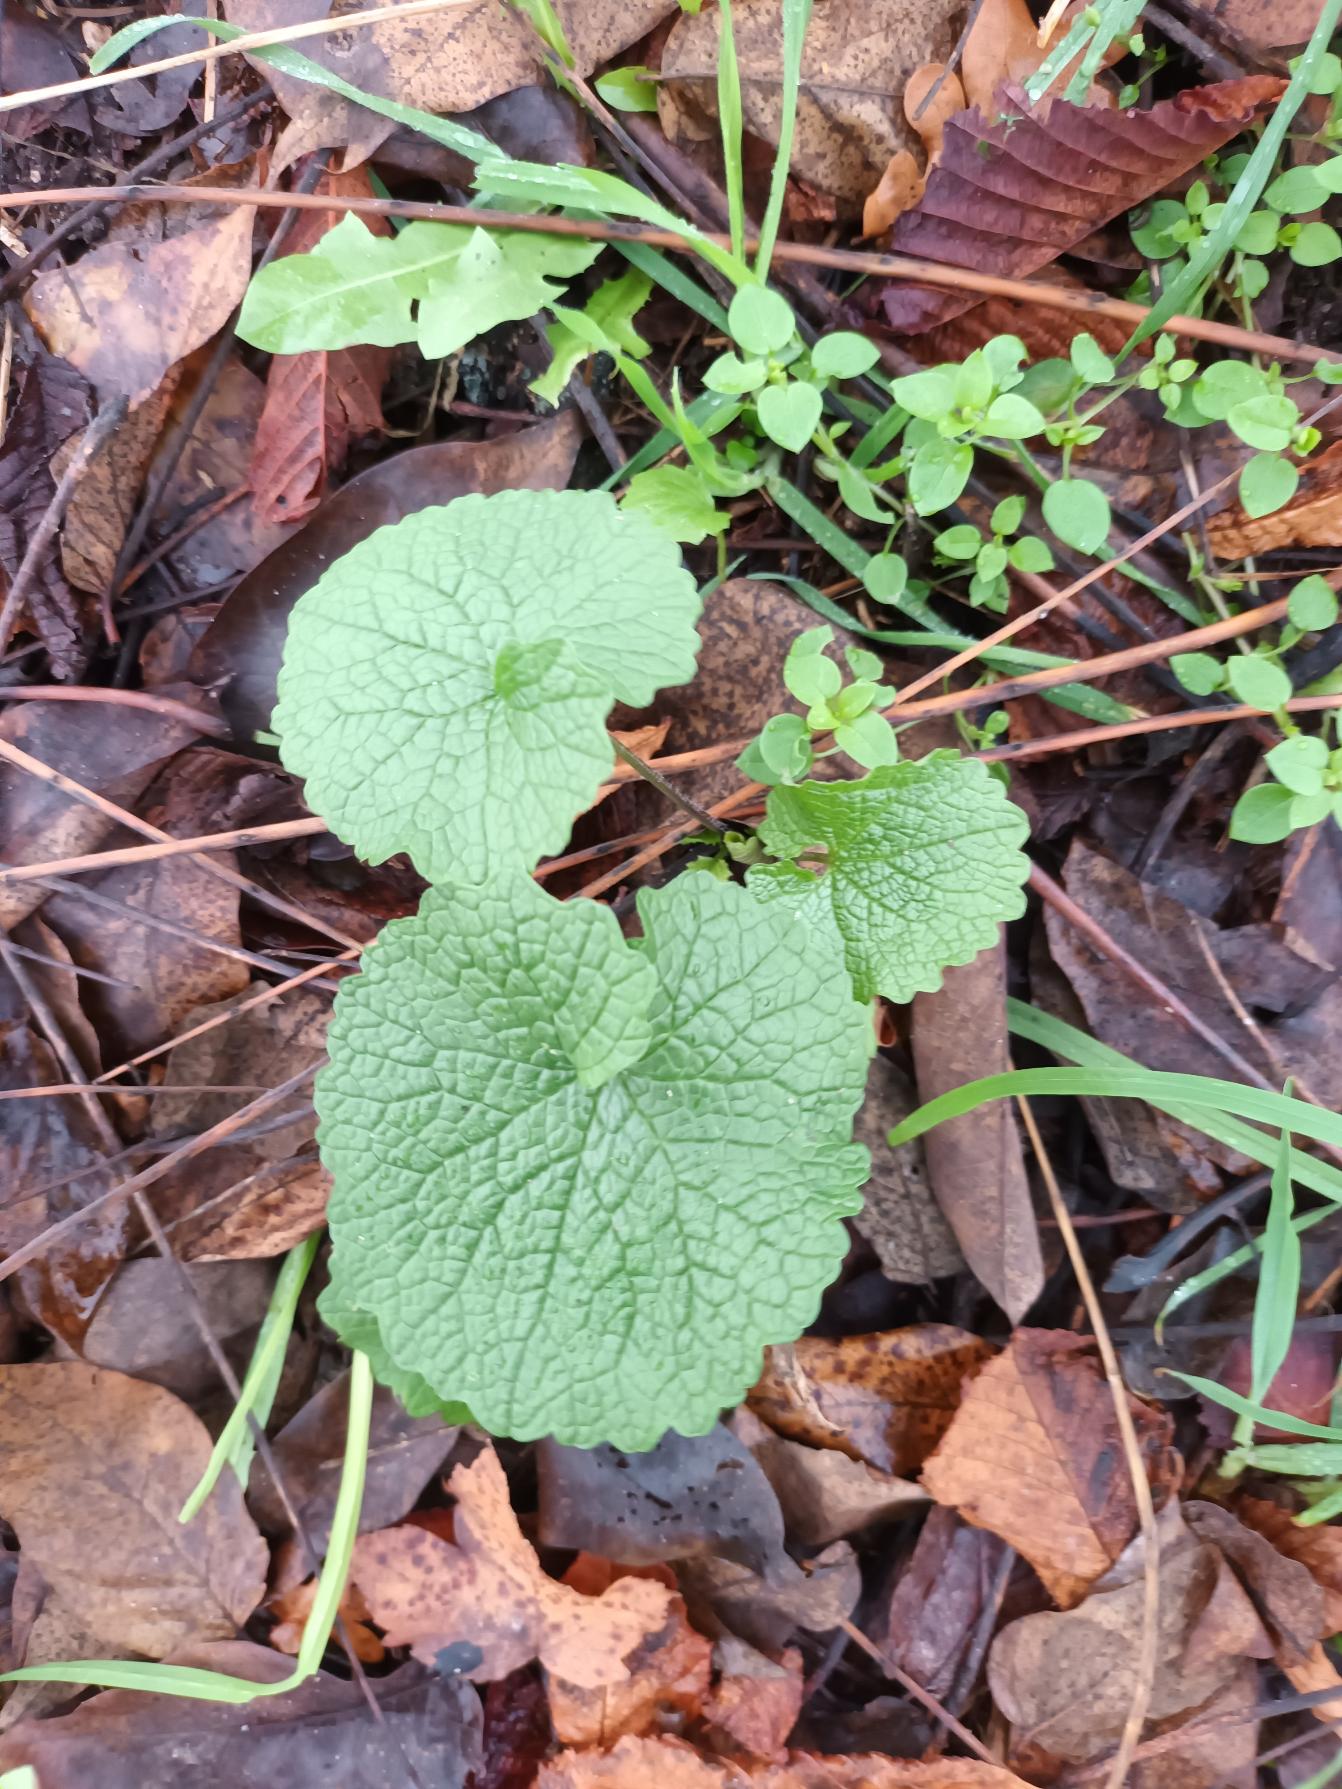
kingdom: Plantae
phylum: Tracheophyta
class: Magnoliopsida
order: Brassicales
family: Brassicaceae
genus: Alliaria
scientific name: Alliaria petiolata
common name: Løgkarse
